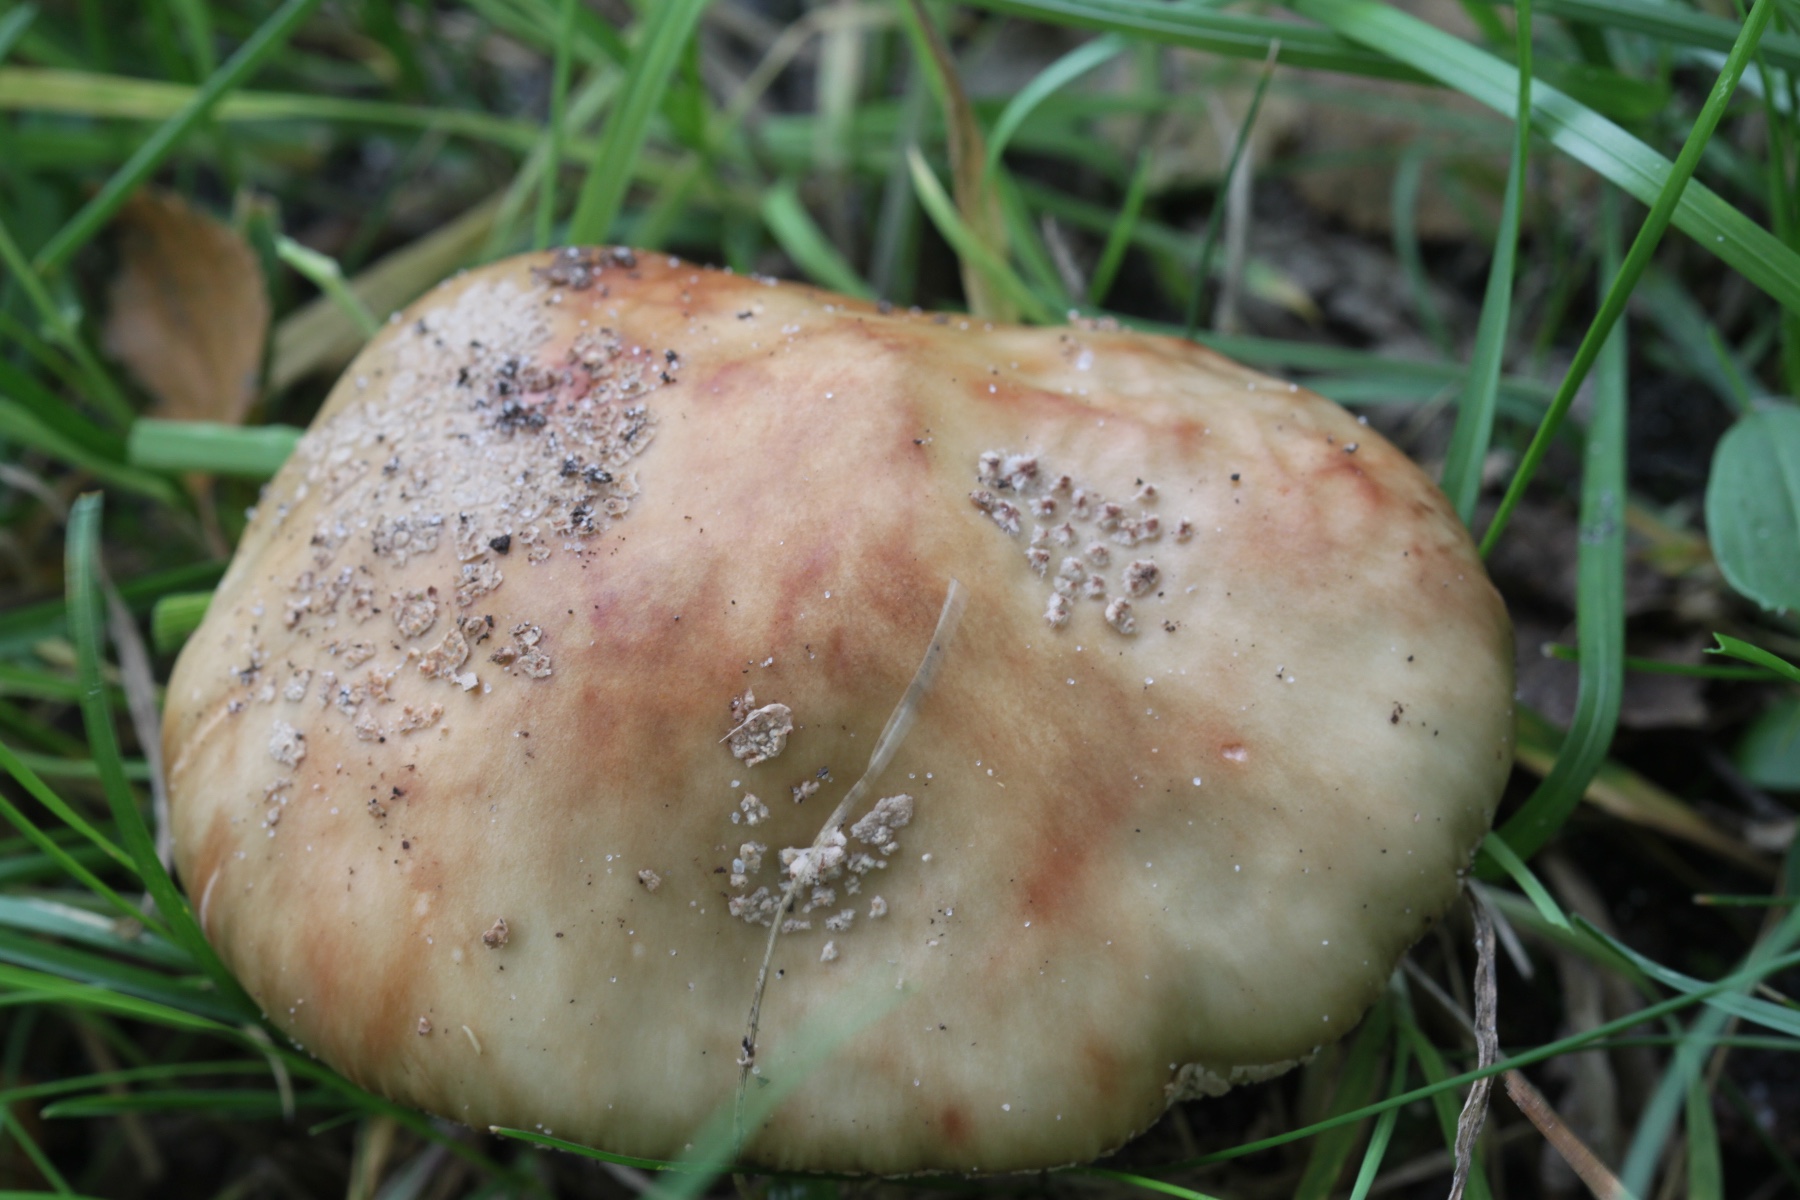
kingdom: Fungi
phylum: Basidiomycota
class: Agaricomycetes
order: Agaricales
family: Amanitaceae
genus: Amanita
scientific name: Amanita rubescens
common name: rødmende fluesvamp
